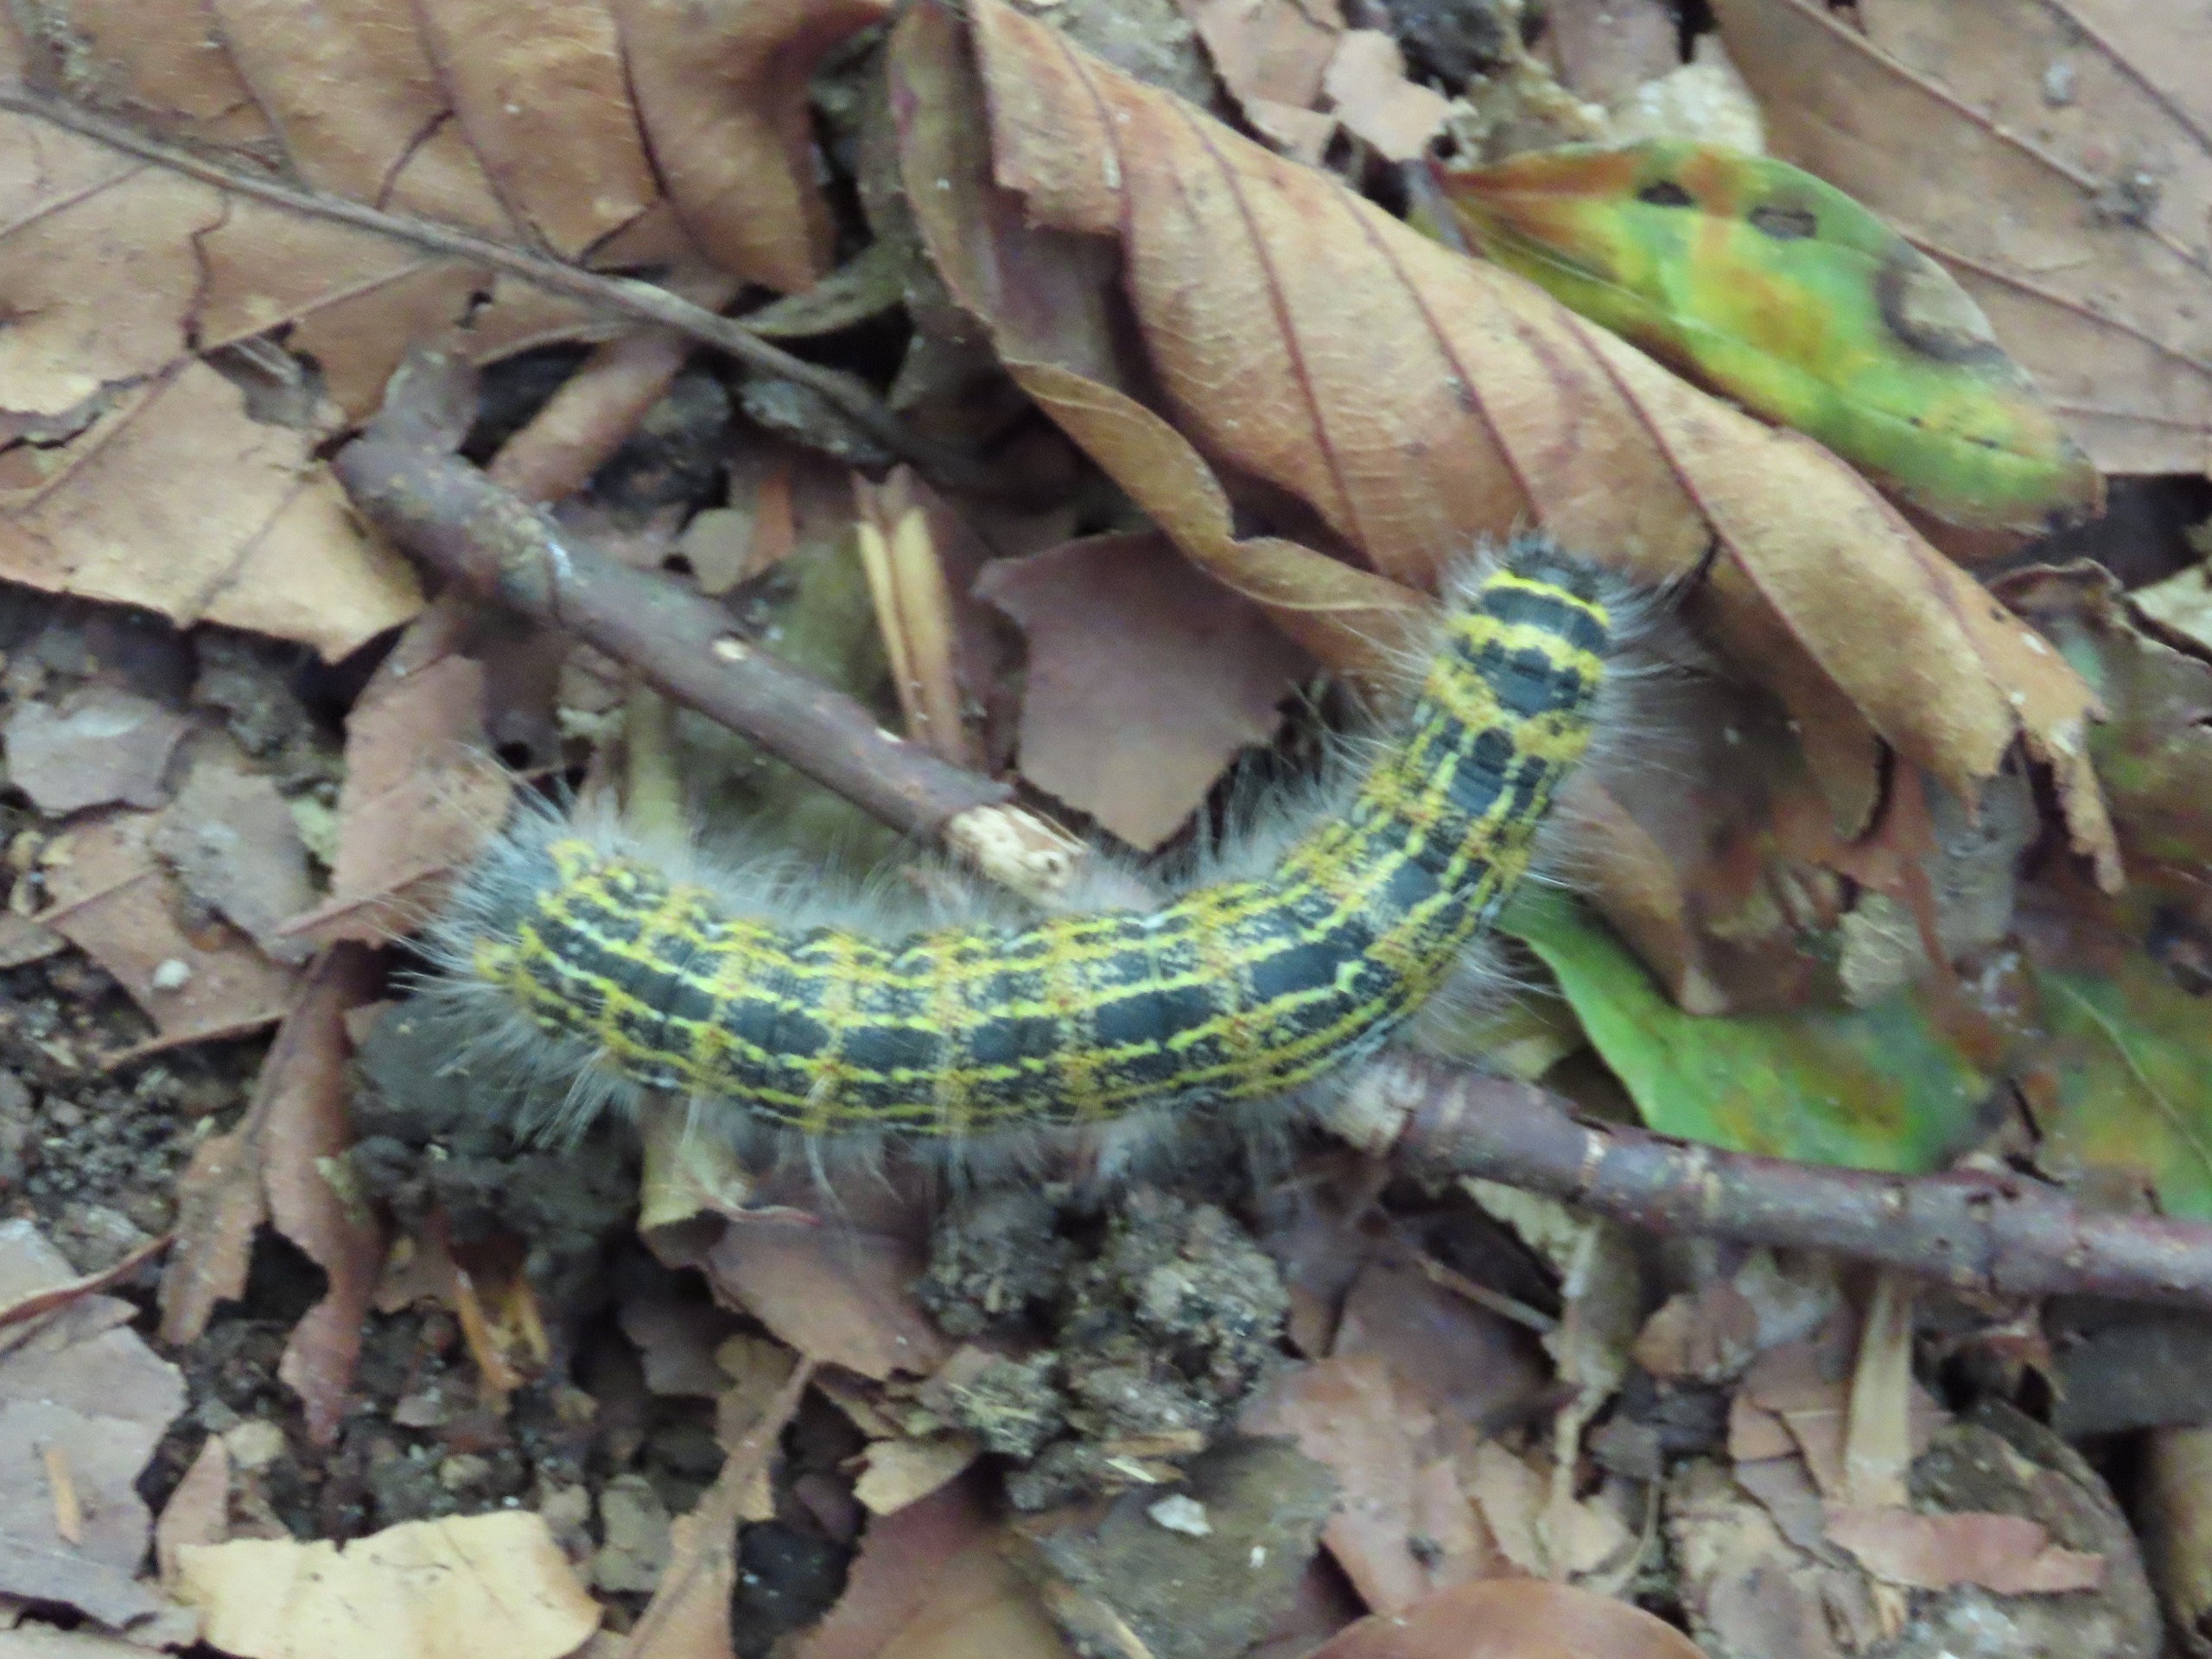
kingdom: Animalia
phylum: Arthropoda
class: Insecta
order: Lepidoptera
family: Notodontidae
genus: Phalera
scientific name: Phalera bucephala
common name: Måneplet
